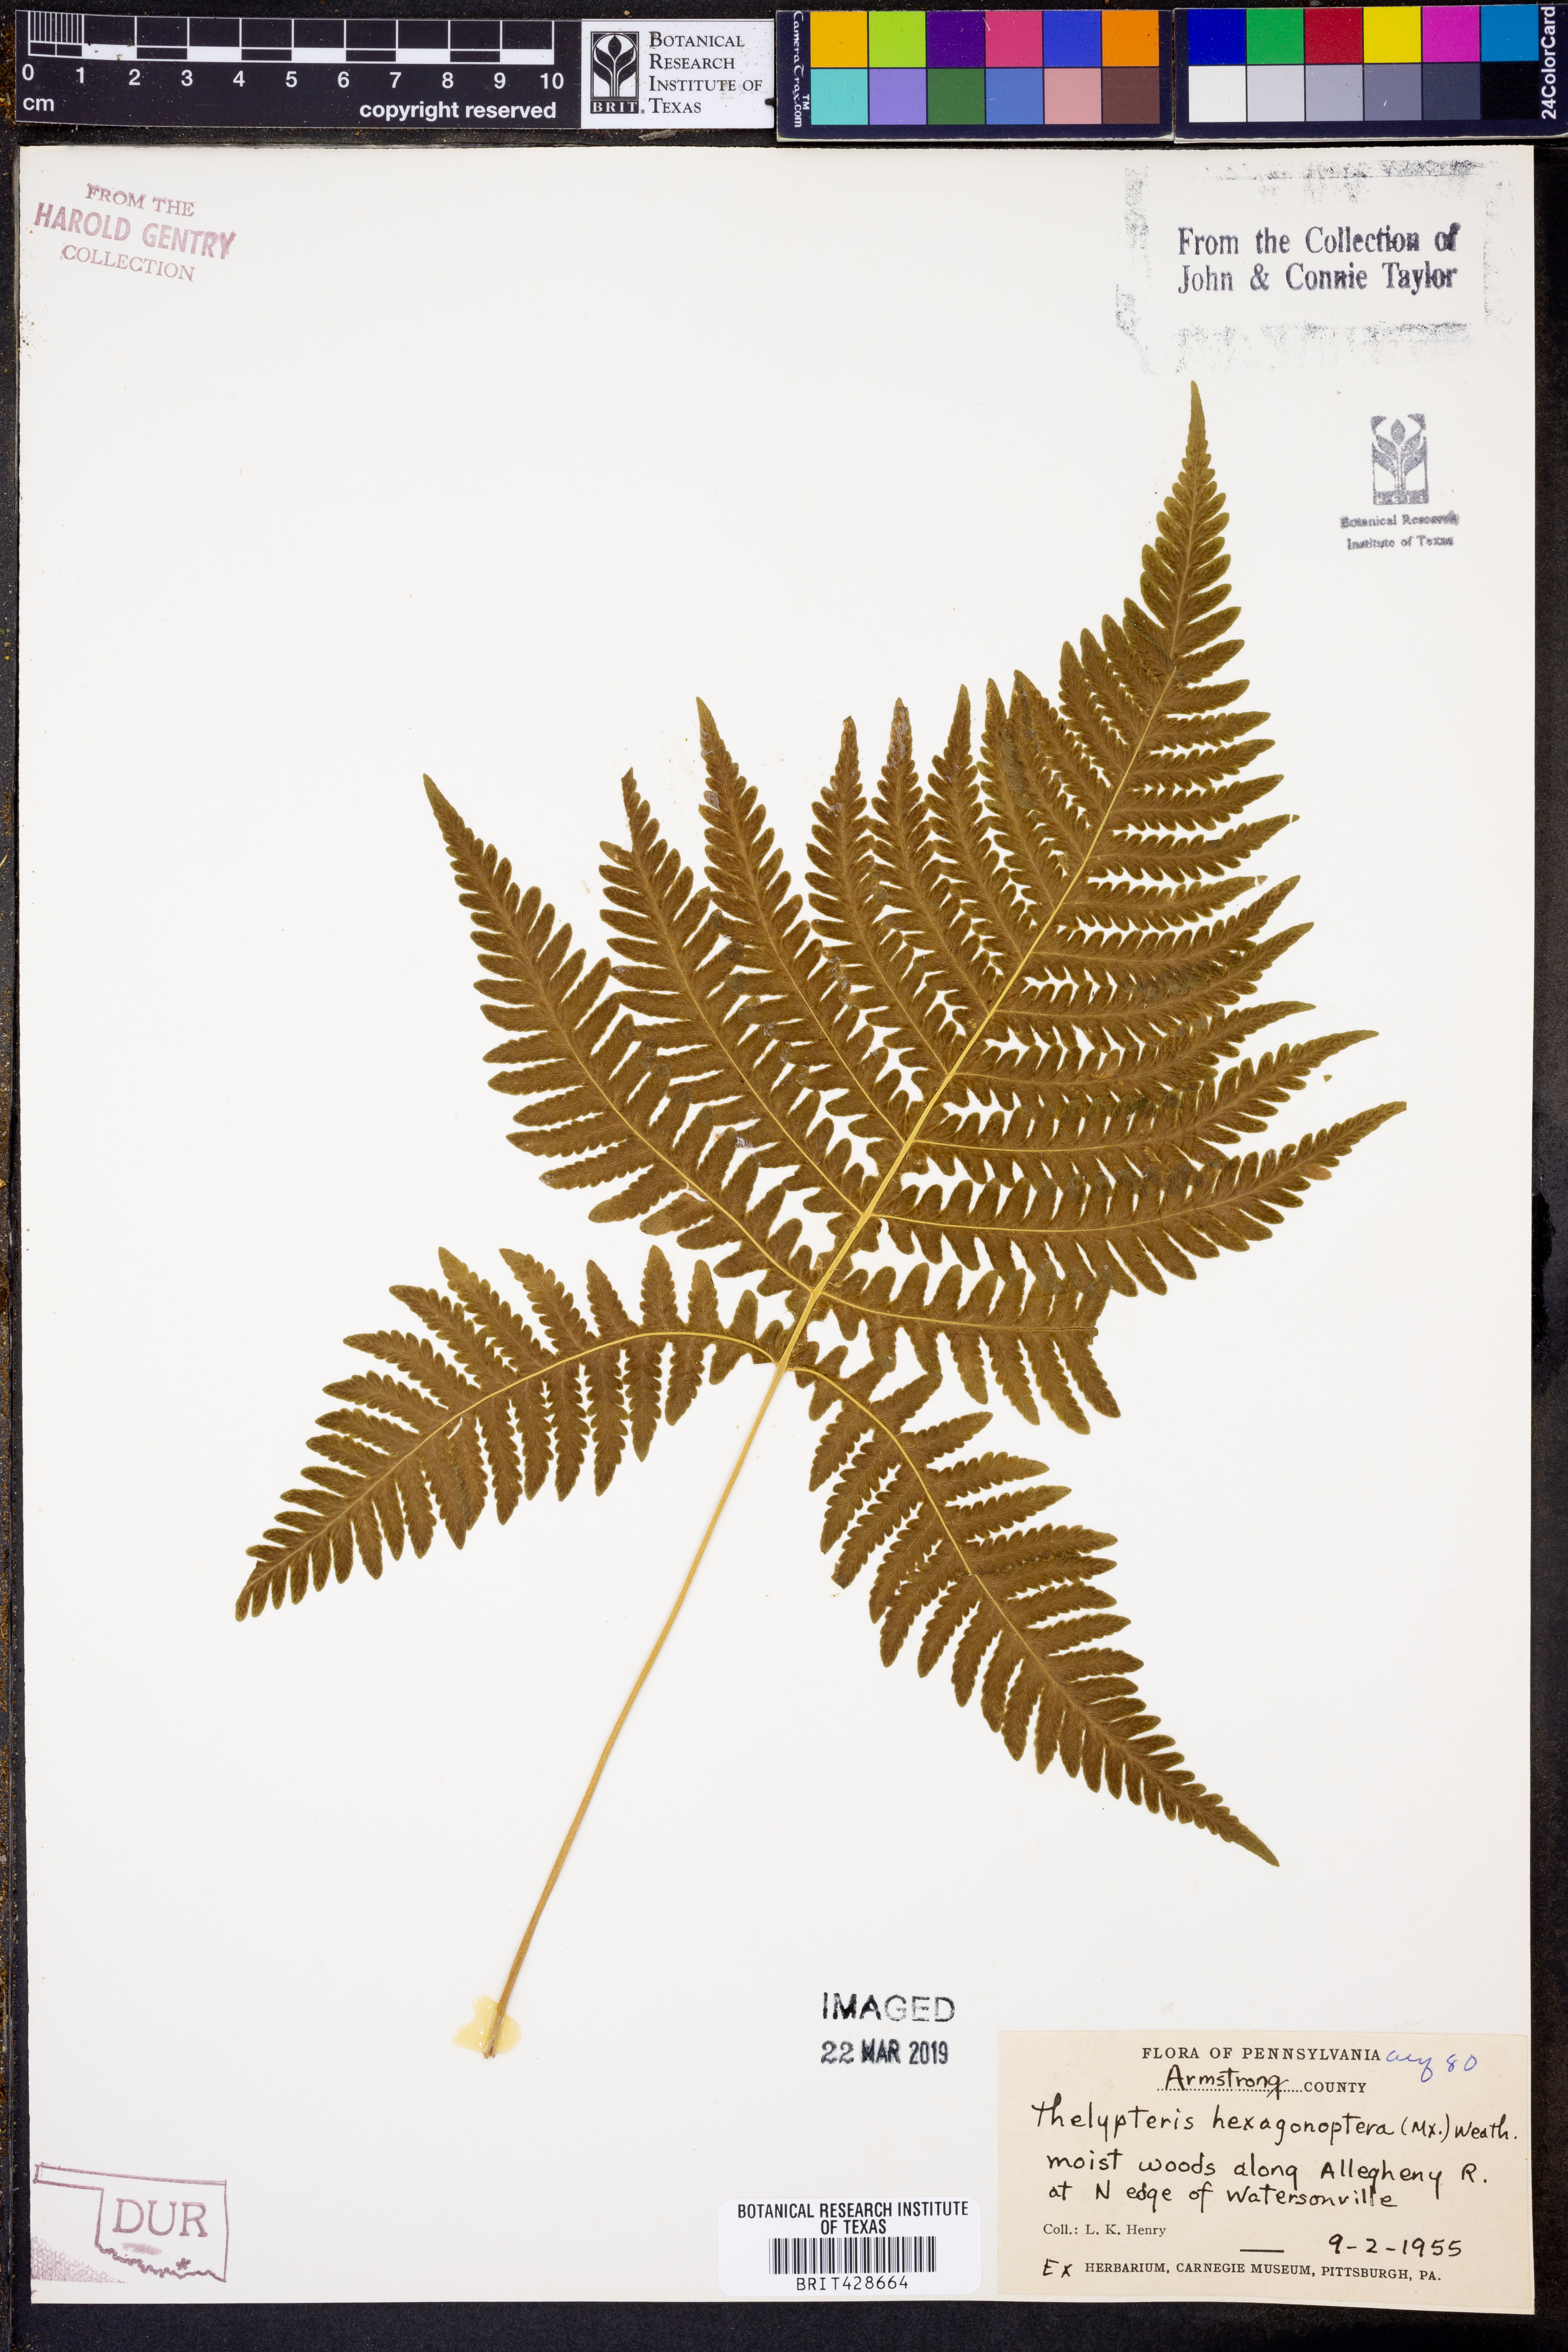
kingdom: Plantae
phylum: Tracheophyta
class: Polypodiopsida
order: Polypodiales
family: Thelypteridaceae
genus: Phegopteris
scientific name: Phegopteris hexagonoptera
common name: Broad beech fern
